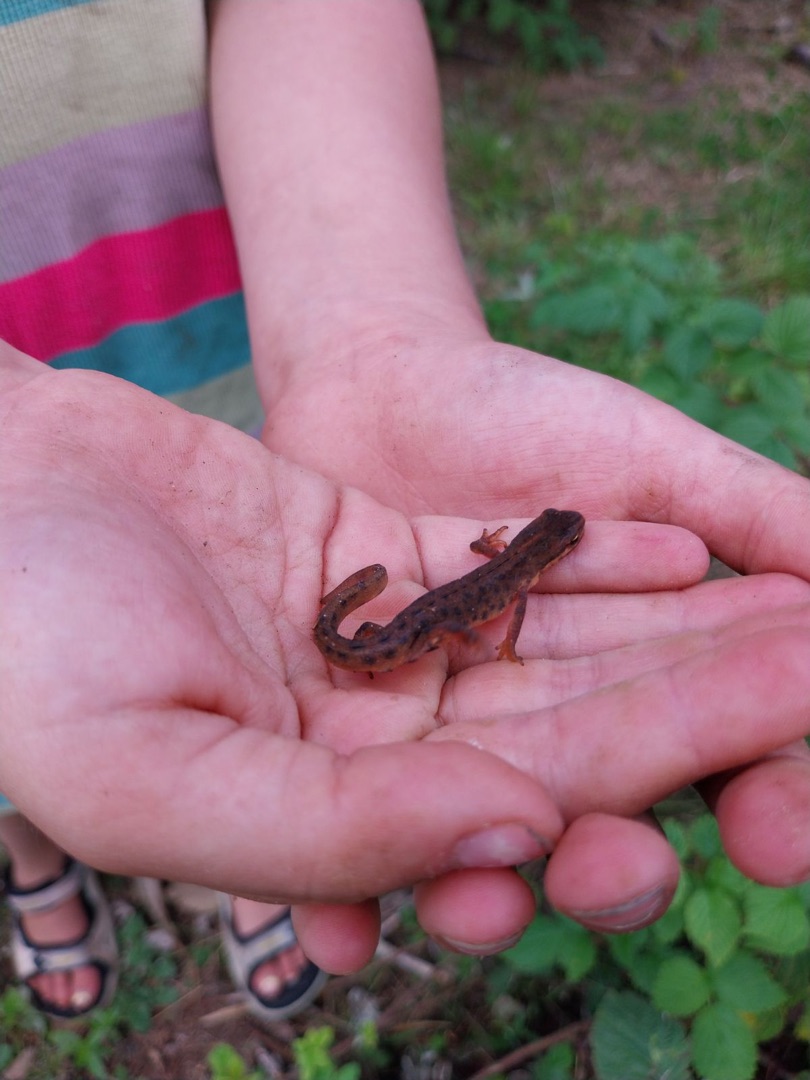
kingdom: Animalia
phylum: Chordata
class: Amphibia
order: Caudata
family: Salamandridae
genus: Lissotriton
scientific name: Lissotriton vulgaris
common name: Lille vandsalamander
